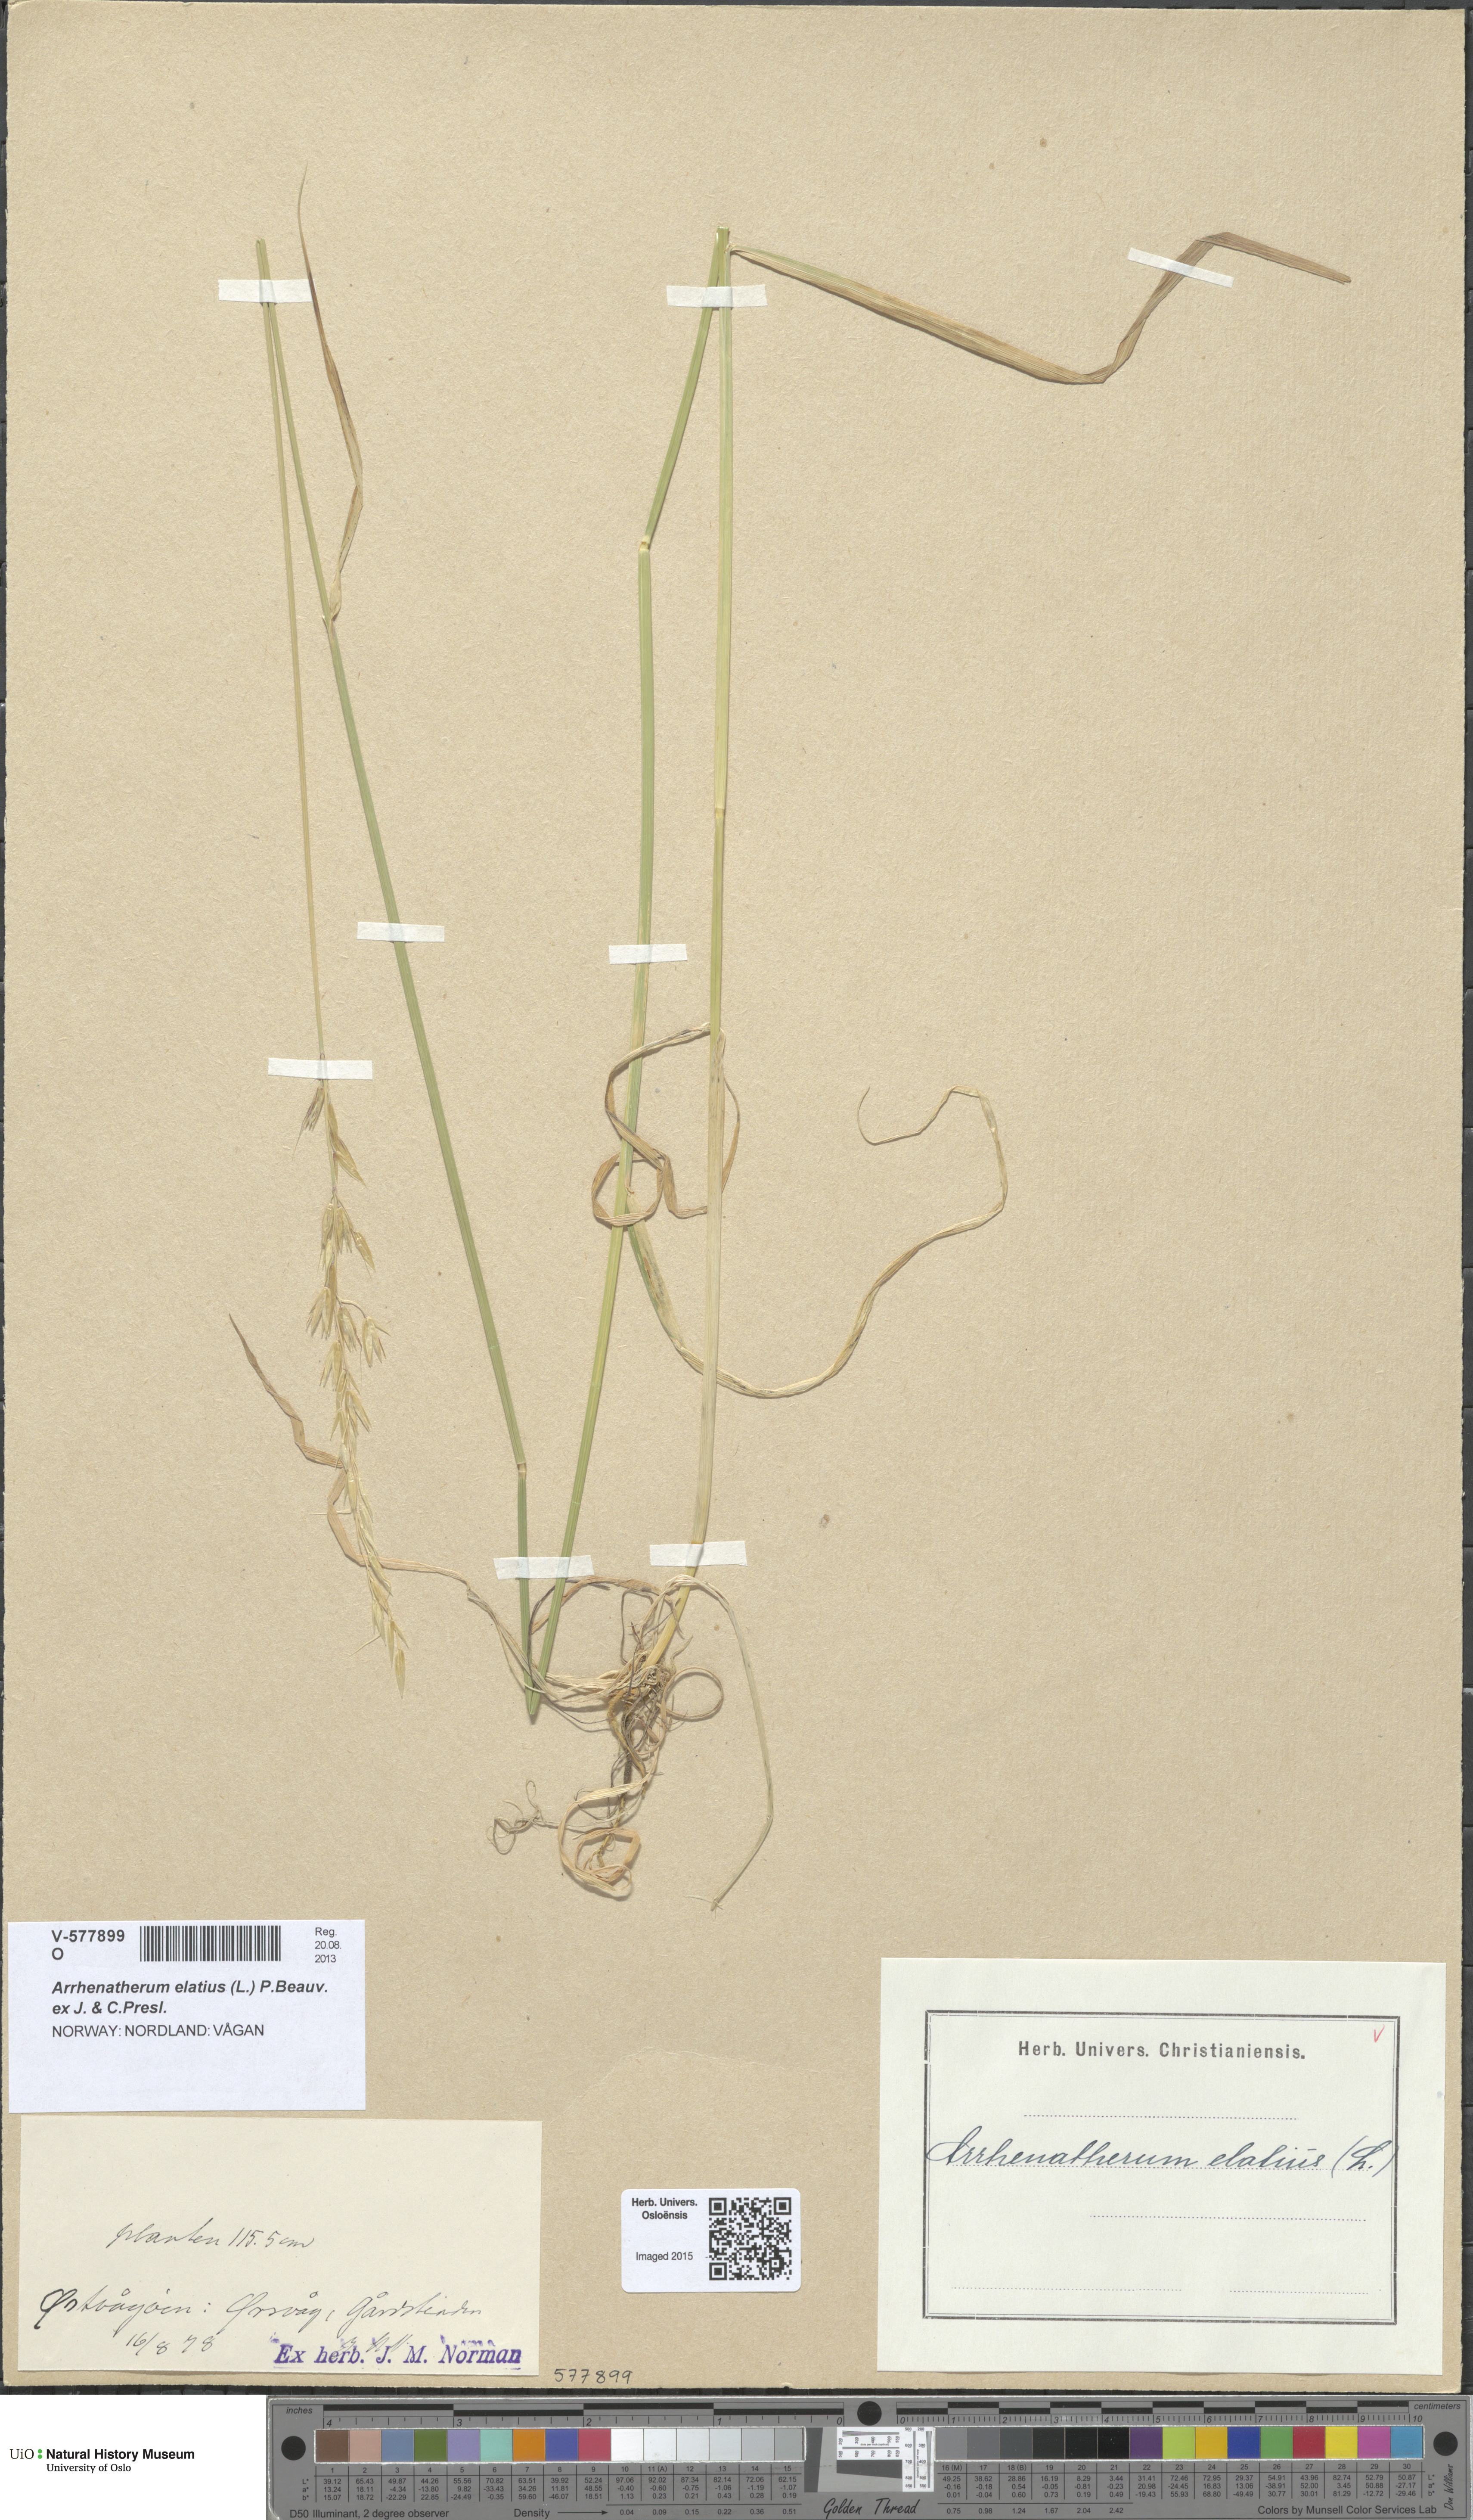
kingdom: Plantae
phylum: Tracheophyta
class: Liliopsida
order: Poales
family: Poaceae
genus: Arrhenatherum
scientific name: Arrhenatherum elatius
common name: Tall oatgrass
